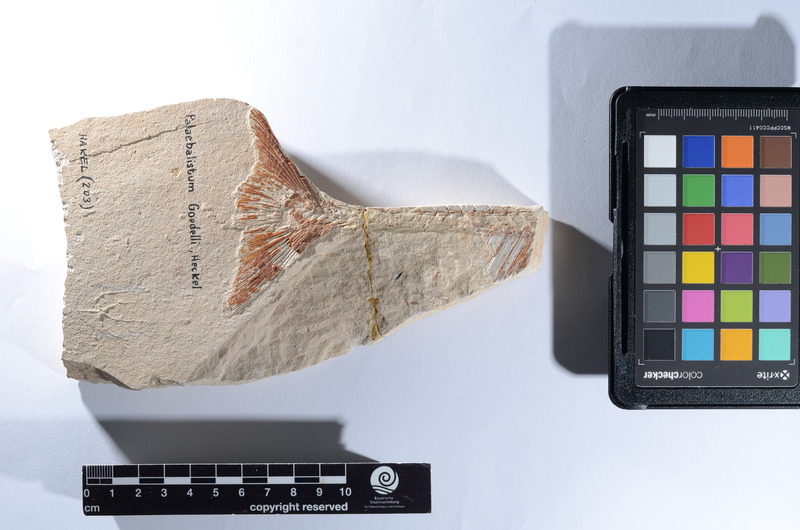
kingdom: Animalia
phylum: Chordata
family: Pycnodontes
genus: Palaeobalistum
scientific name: Palaeobalistum goedelii
